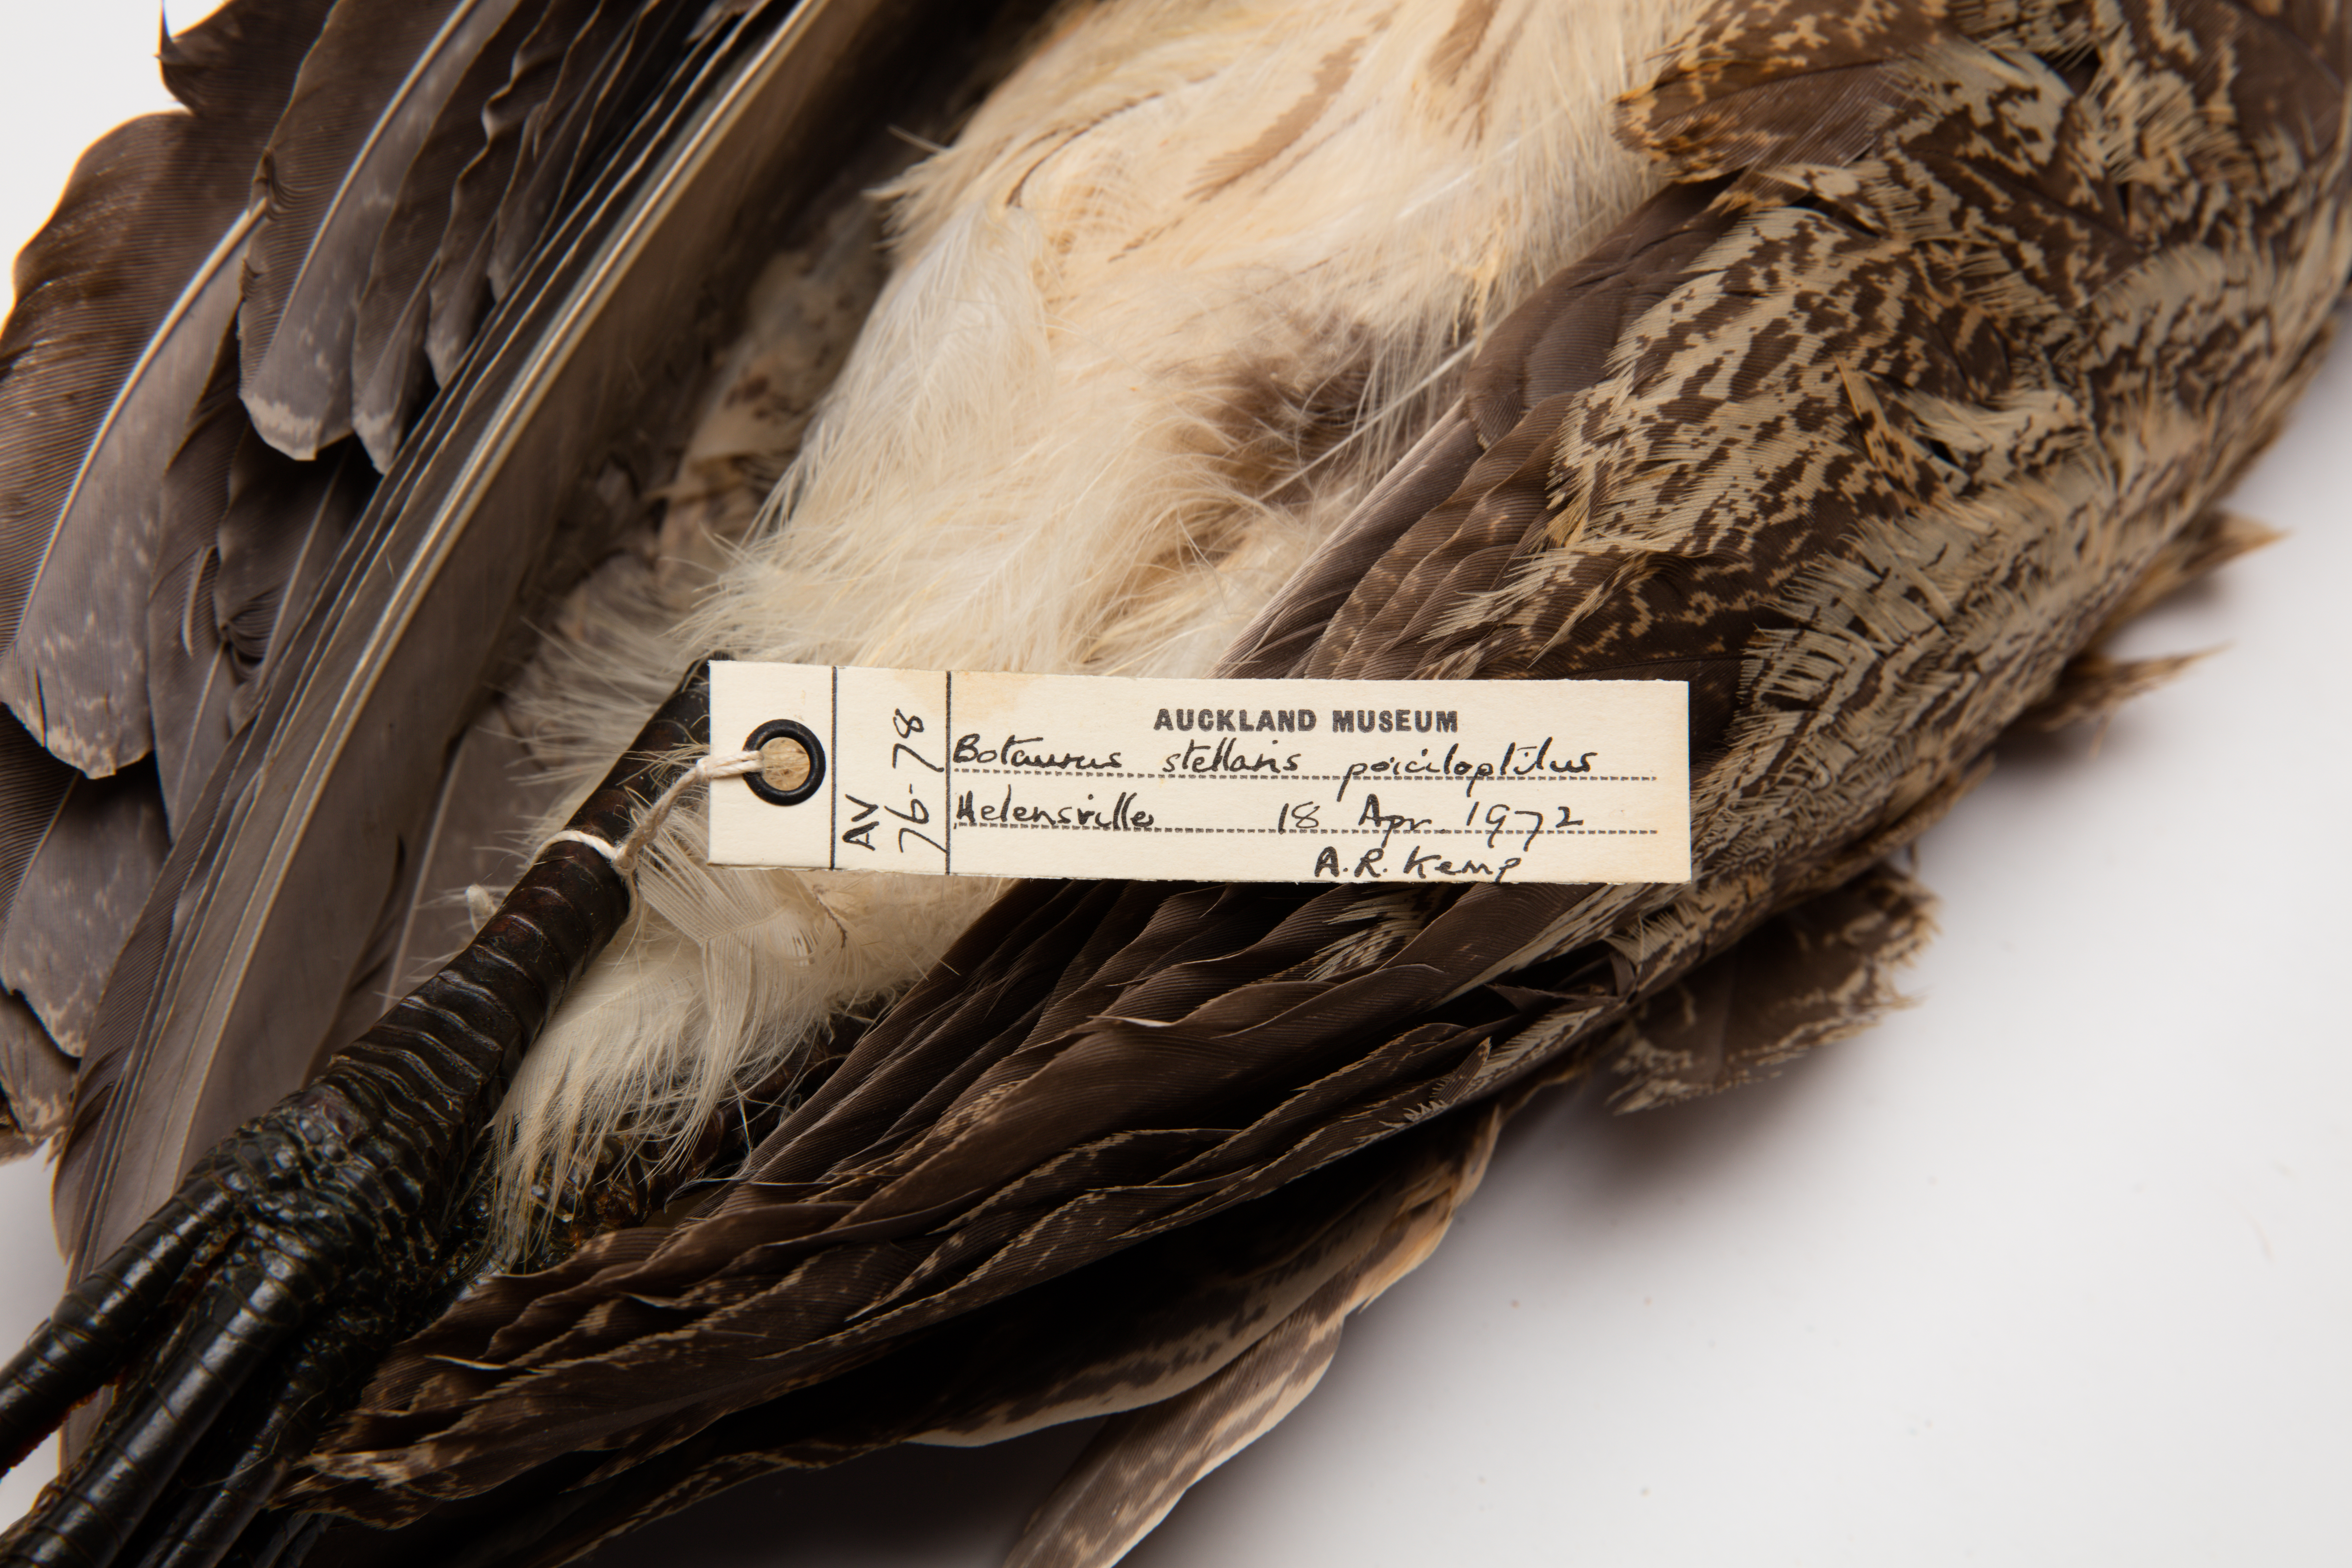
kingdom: Animalia
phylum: Chordata
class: Aves
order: Pelecaniformes
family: Ardeidae
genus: Botaurus
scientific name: Botaurus poiciloptilus
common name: Australasian bittern
